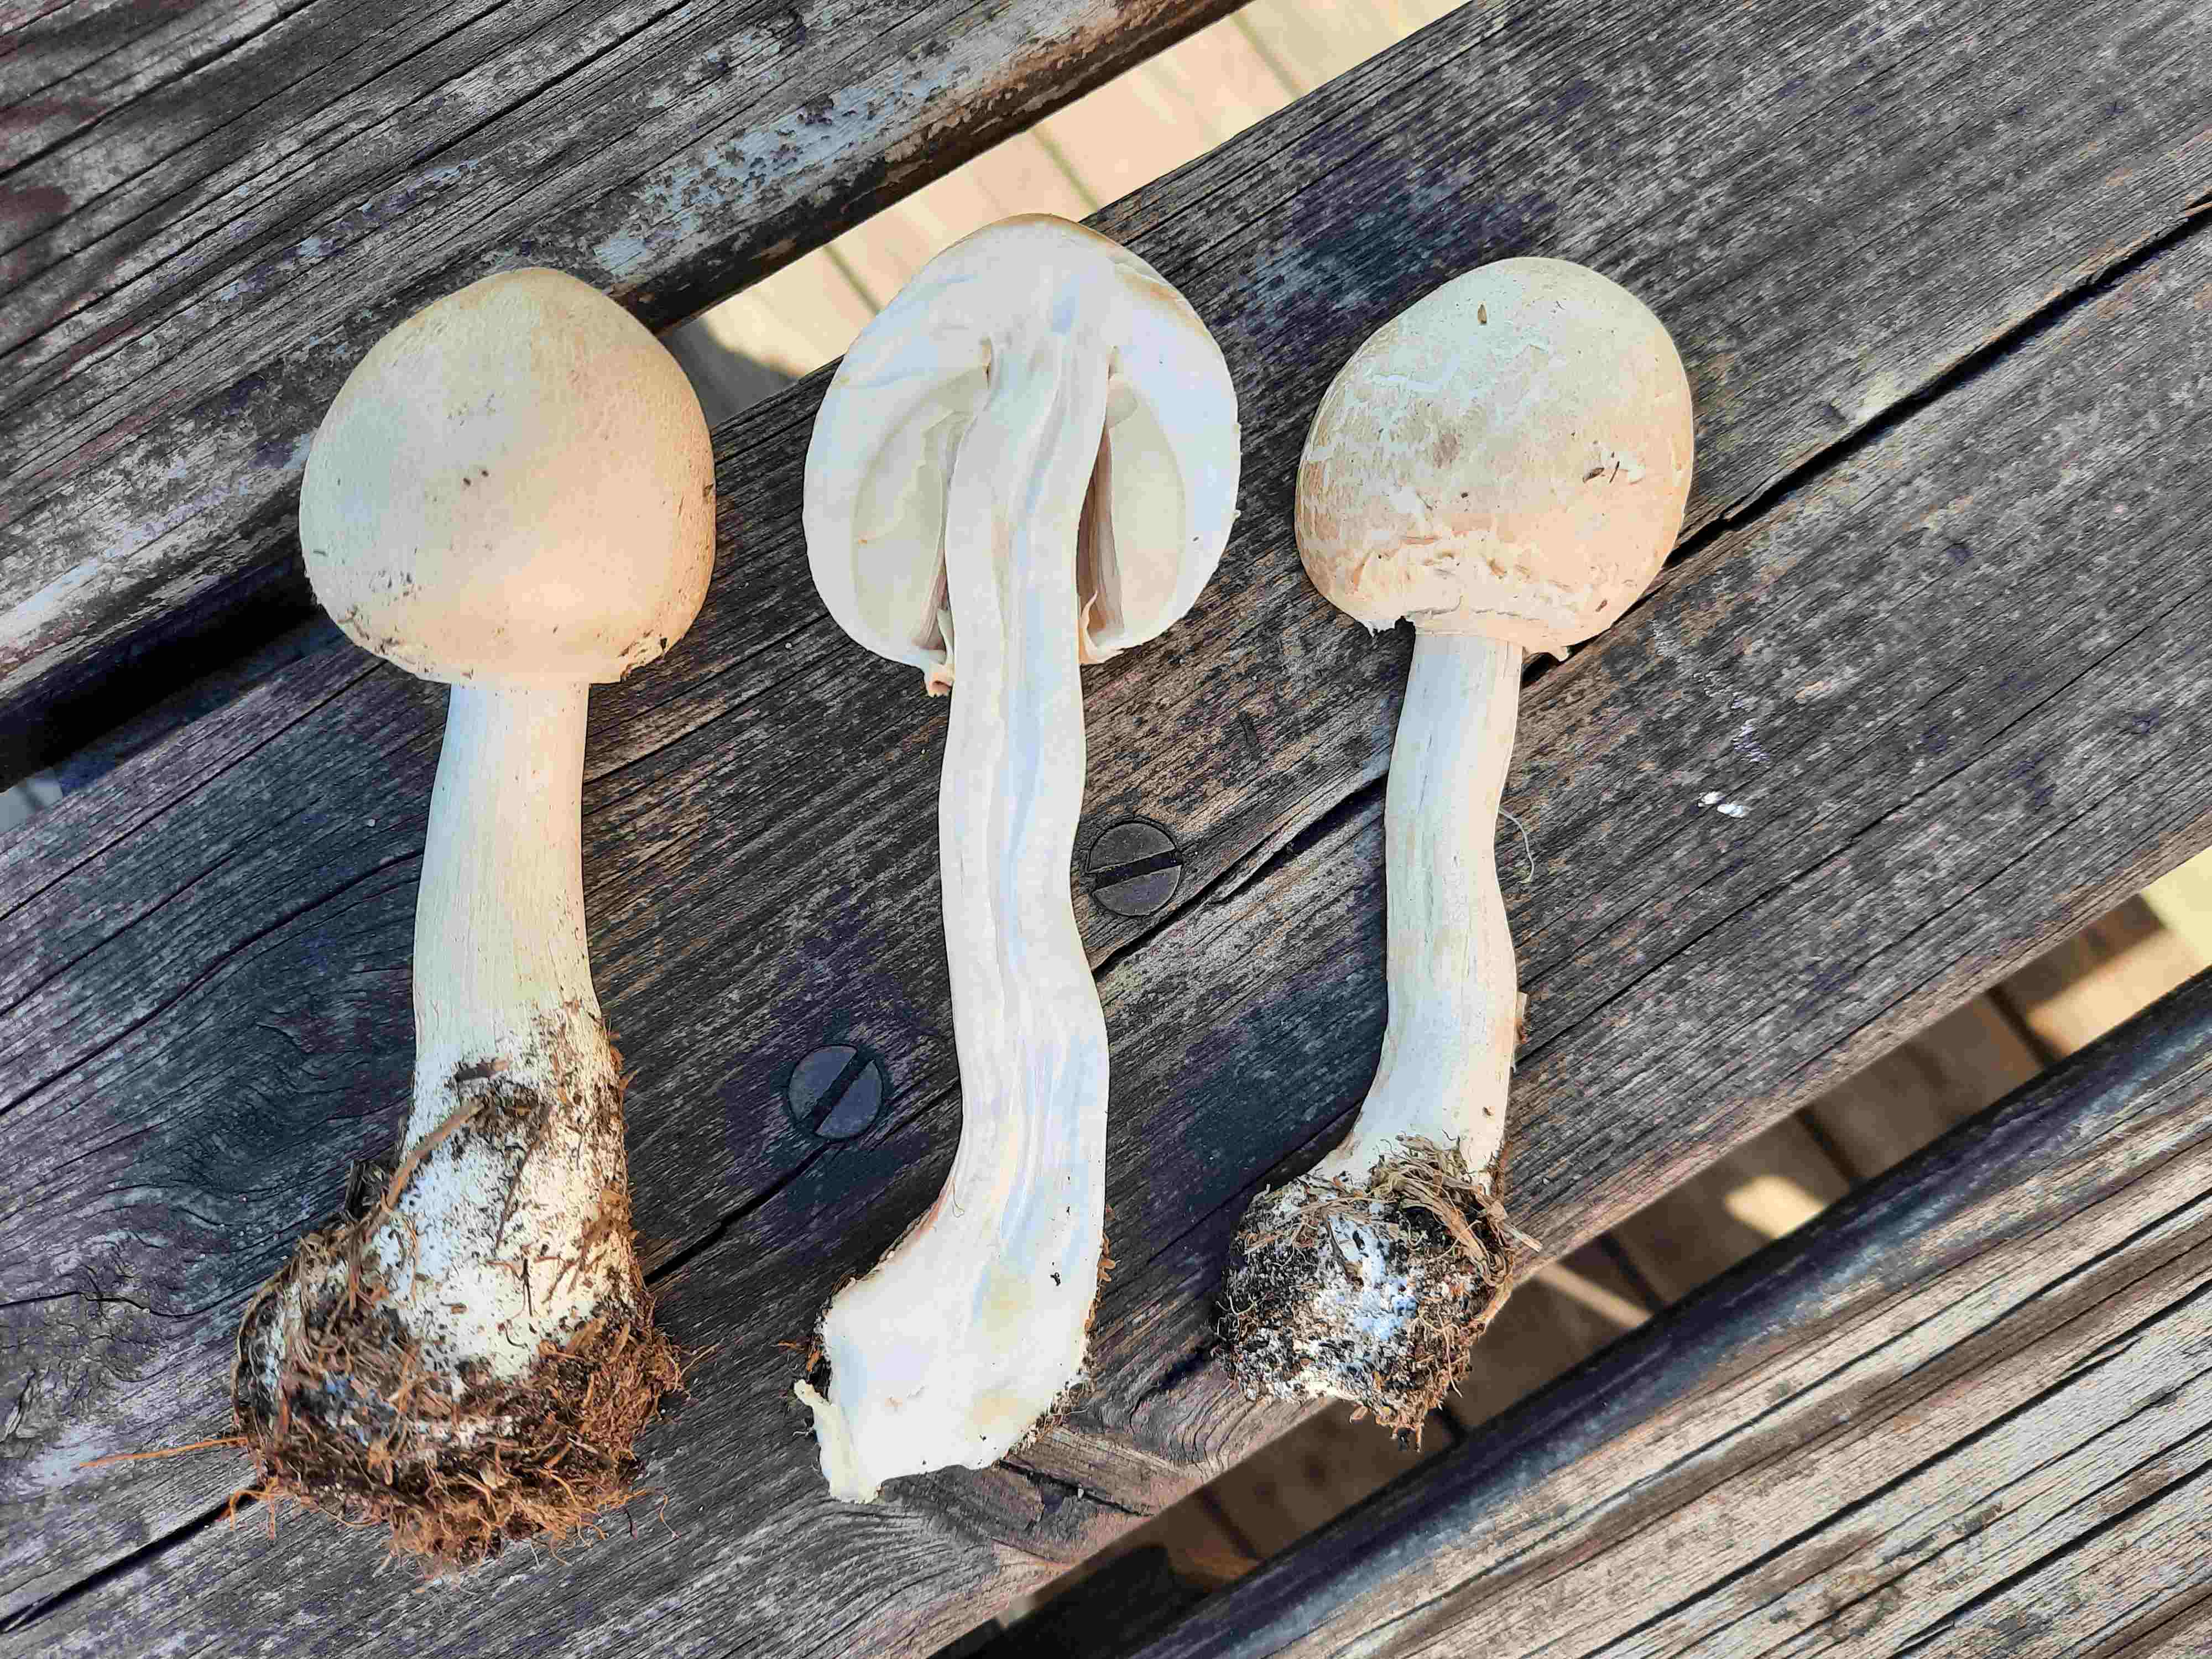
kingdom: Fungi
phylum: Basidiomycota
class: Agaricomycetes
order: Agaricales
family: Agaricaceae
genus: Leucoagaricus
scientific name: Leucoagaricus leucothites
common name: rosabladet silkehat
